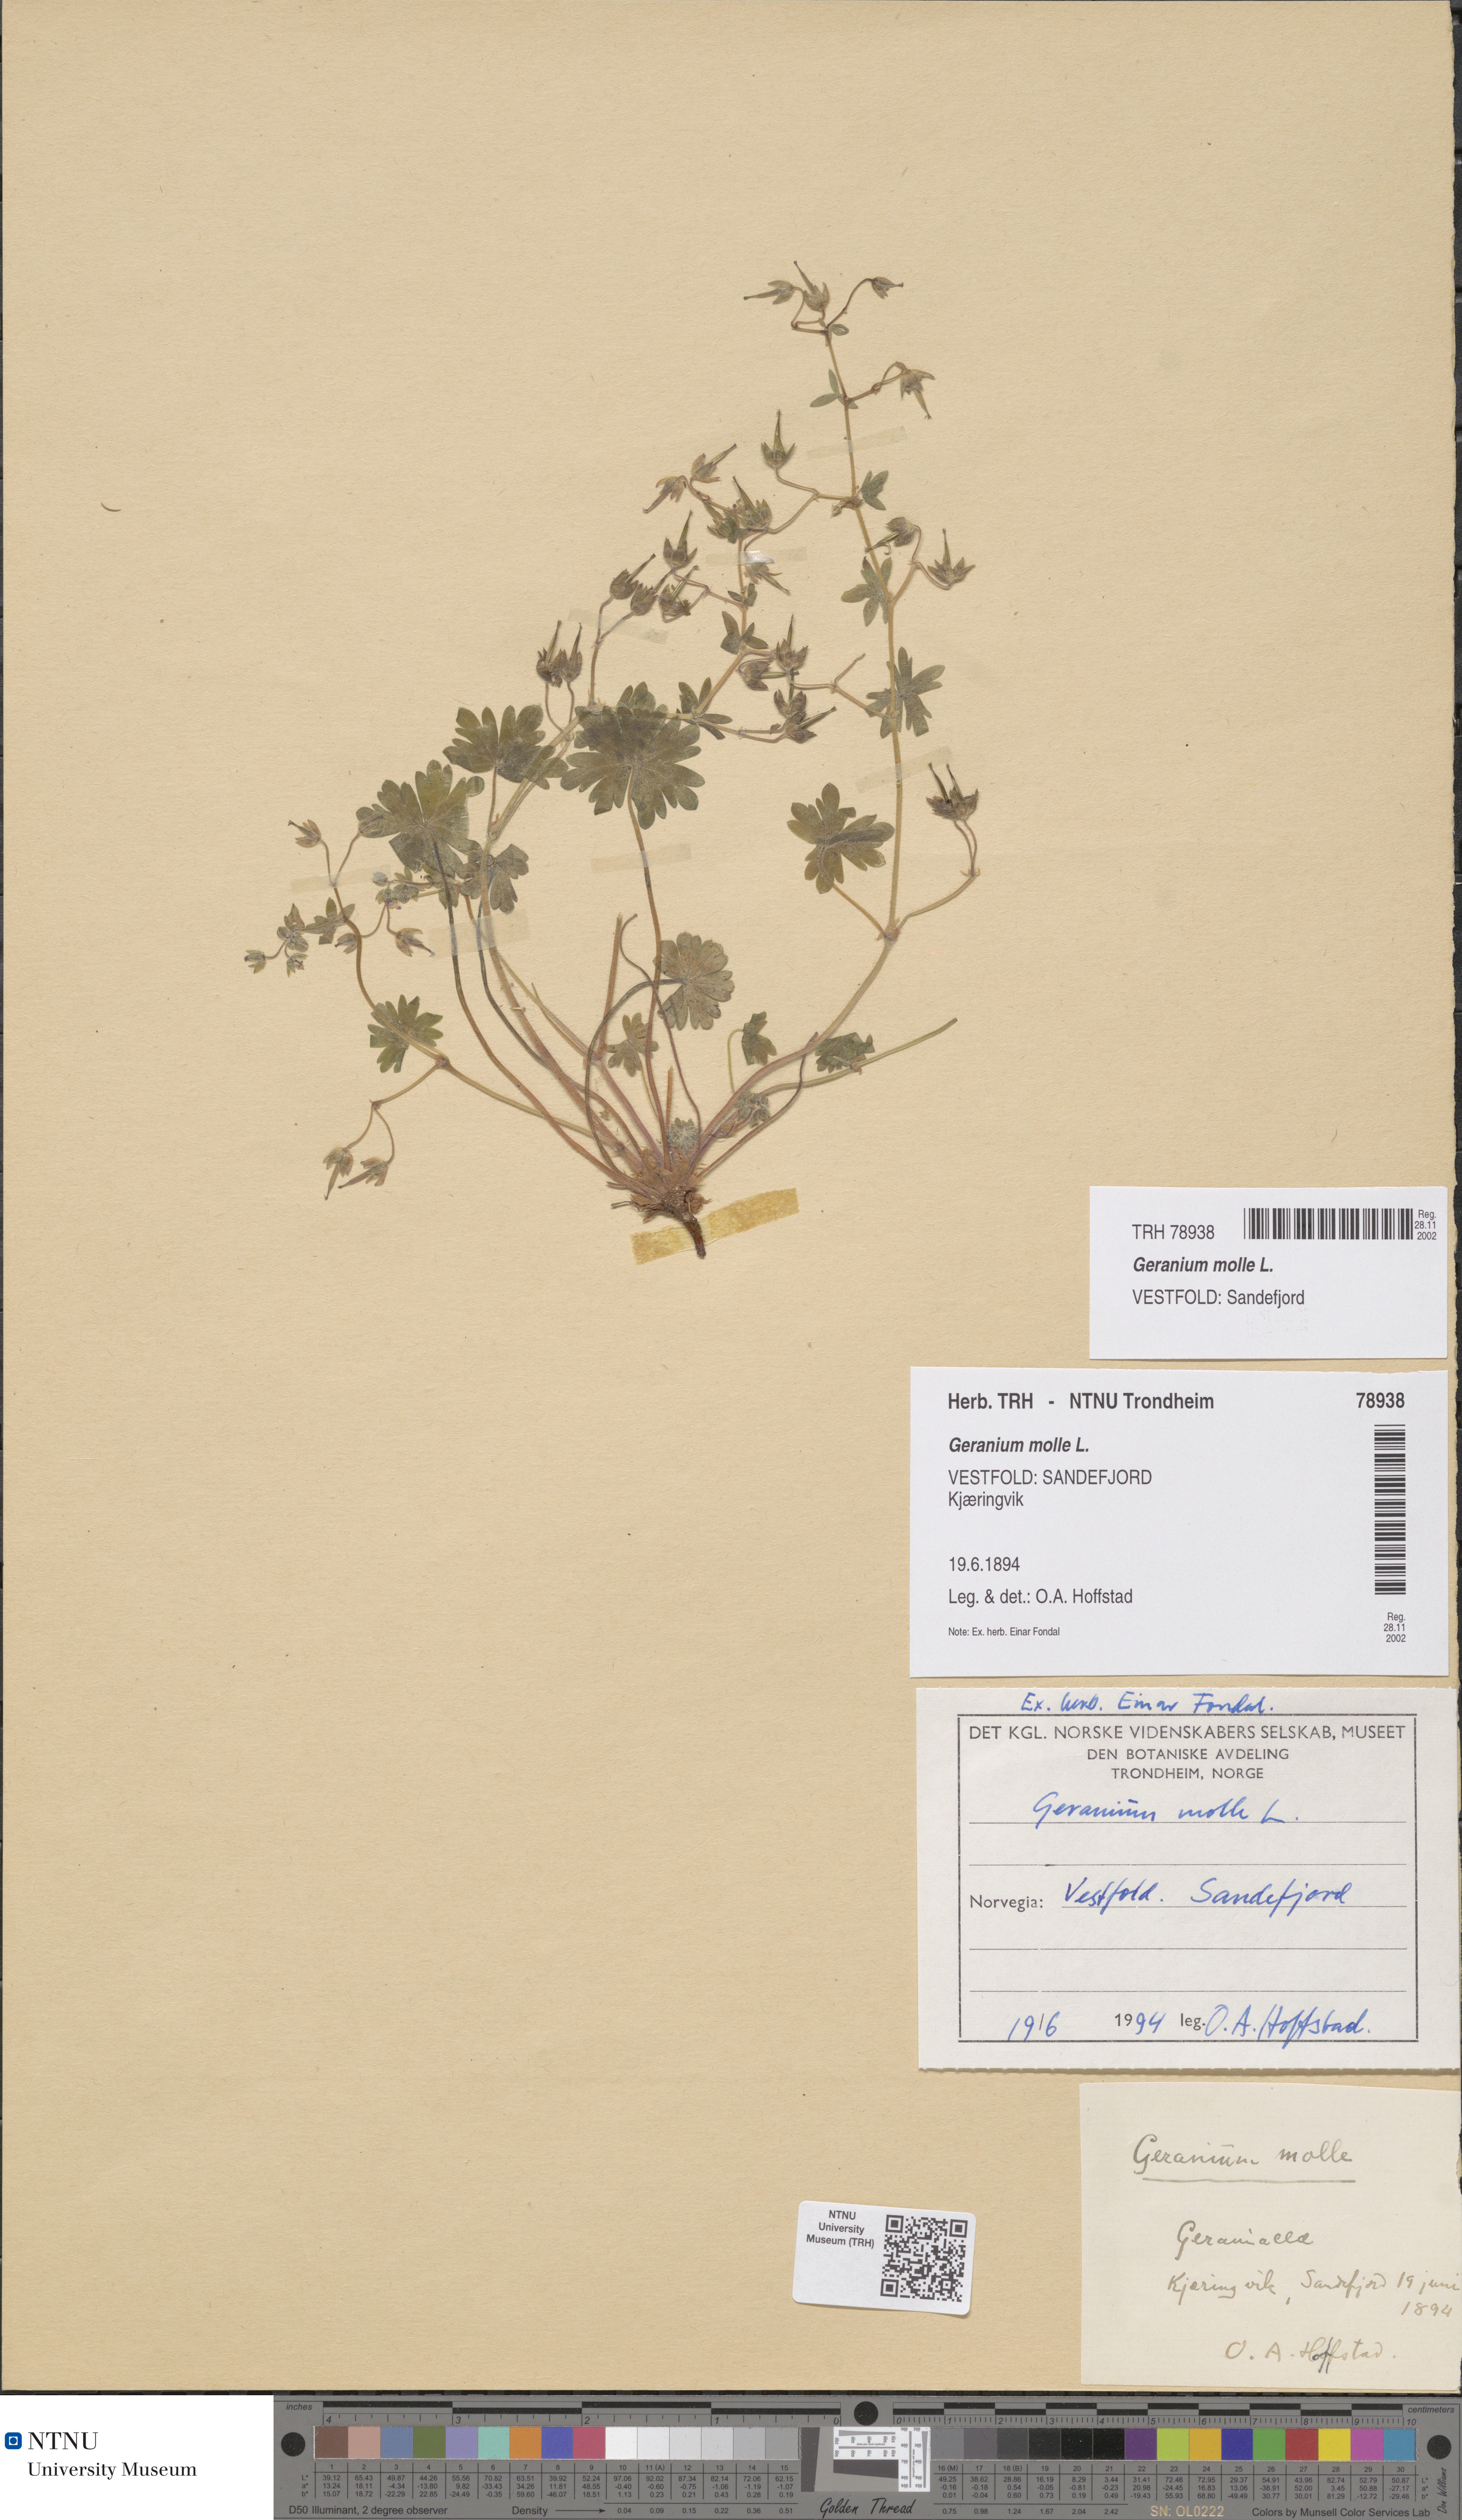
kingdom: Plantae
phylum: Tracheophyta
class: Magnoliopsida
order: Geraniales
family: Geraniaceae
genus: Geranium
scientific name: Geranium molle
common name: Dove's-foot crane's-bill
